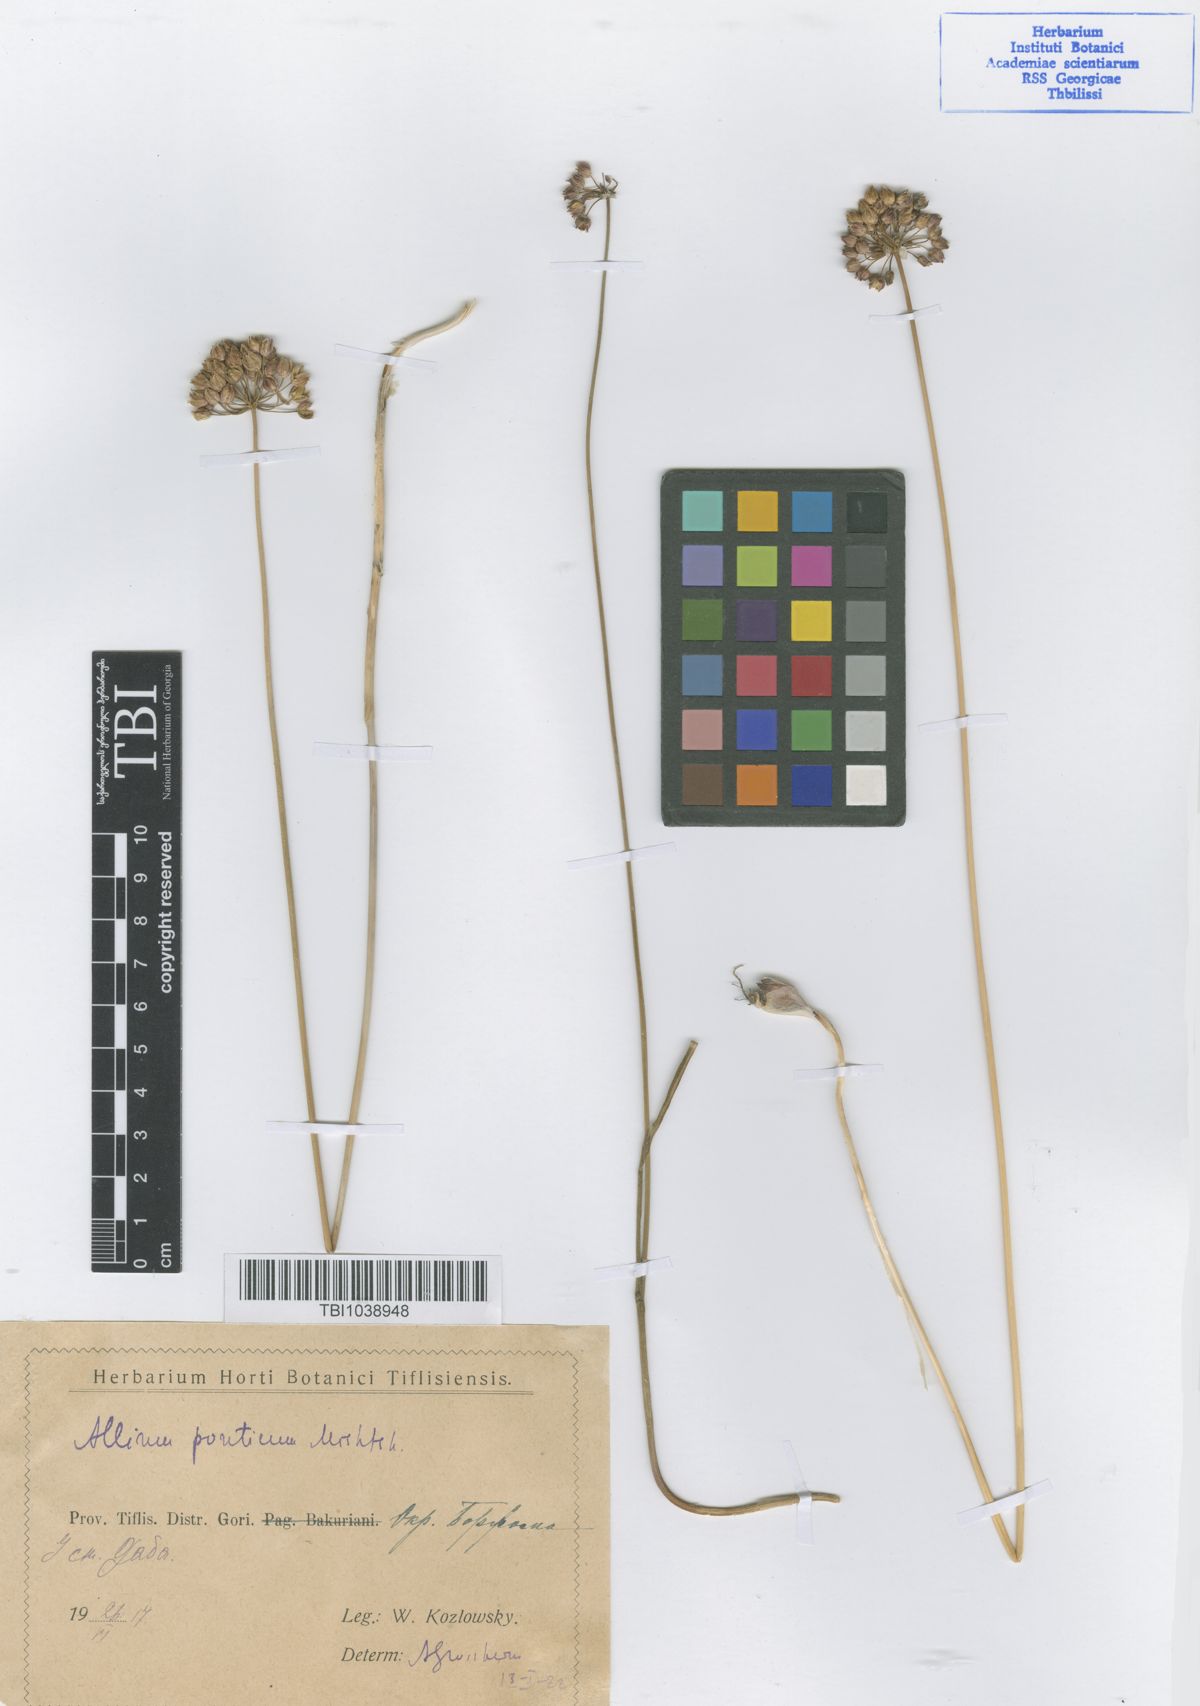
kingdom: Plantae
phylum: Tracheophyta
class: Liliopsida
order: Asparagales
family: Amaryllidaceae
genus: Allium
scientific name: Allium ponticum
